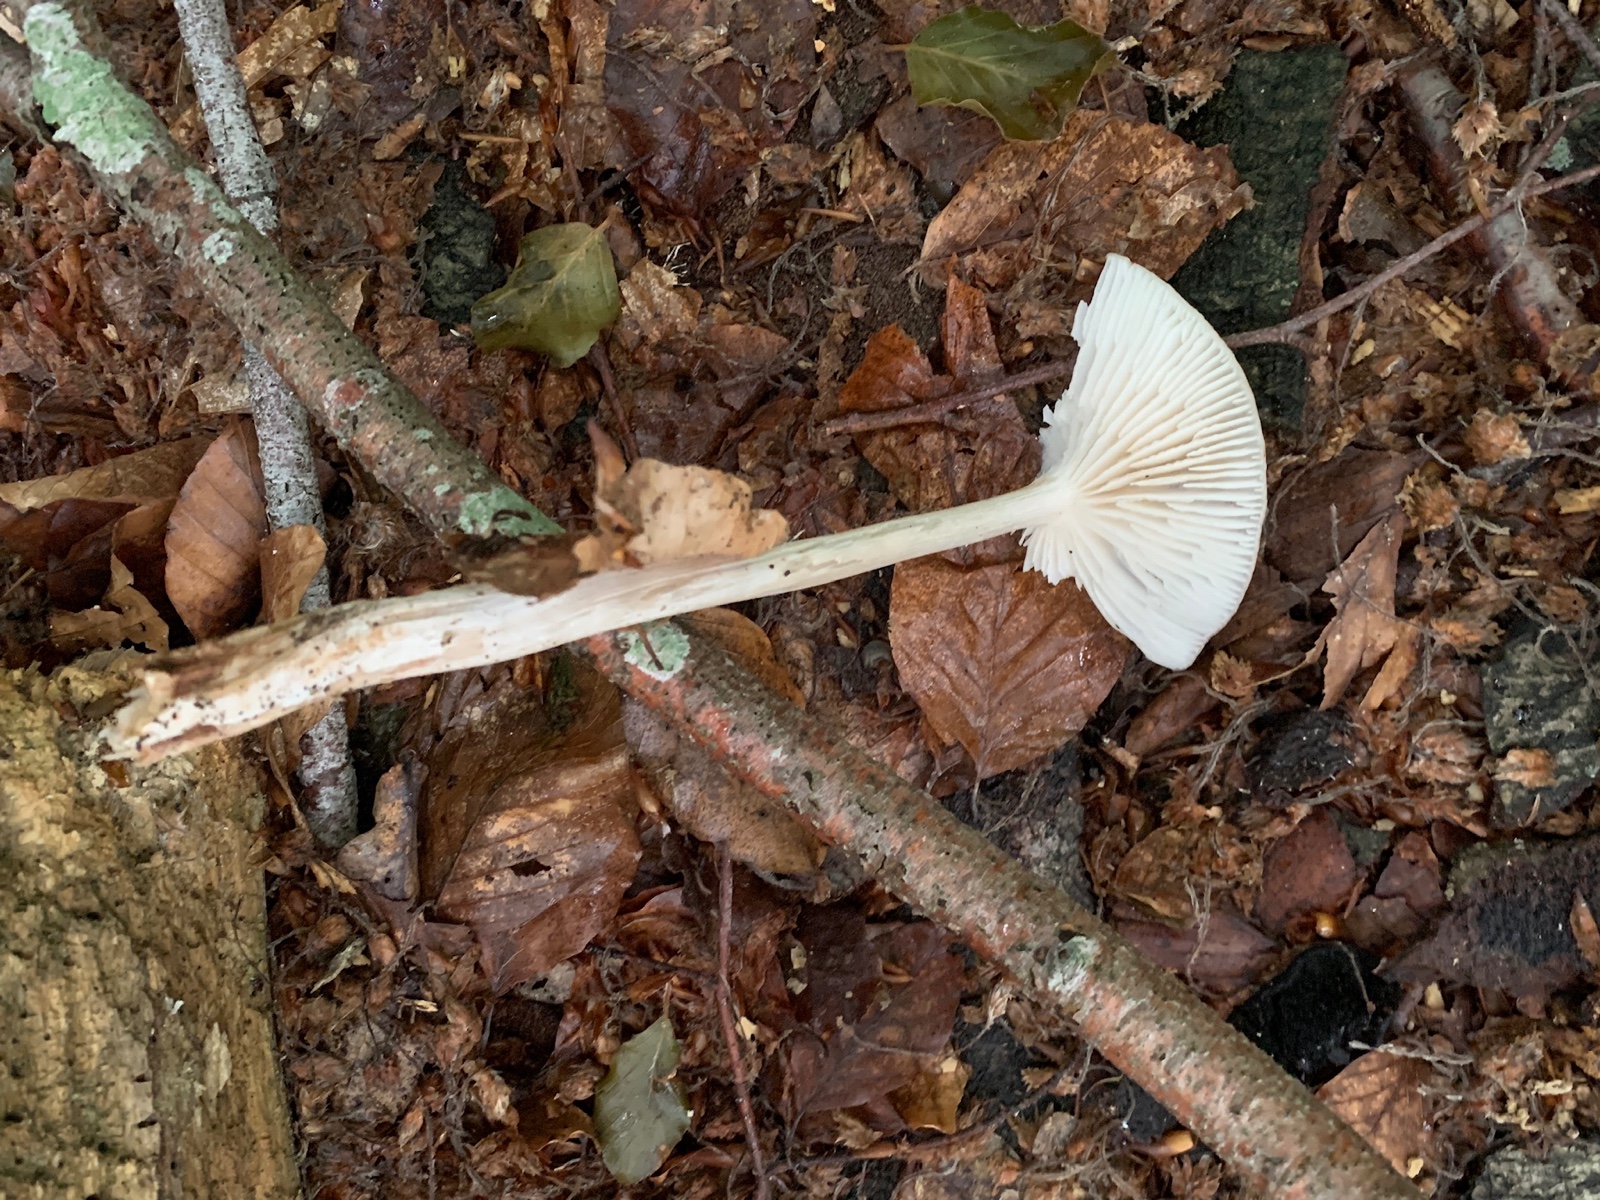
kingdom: Fungi
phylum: Basidiomycota
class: Agaricomycetes
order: Agaricales
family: Physalacriaceae
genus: Hymenopellis
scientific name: Hymenopellis radicata
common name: almindelig pælerodshat
